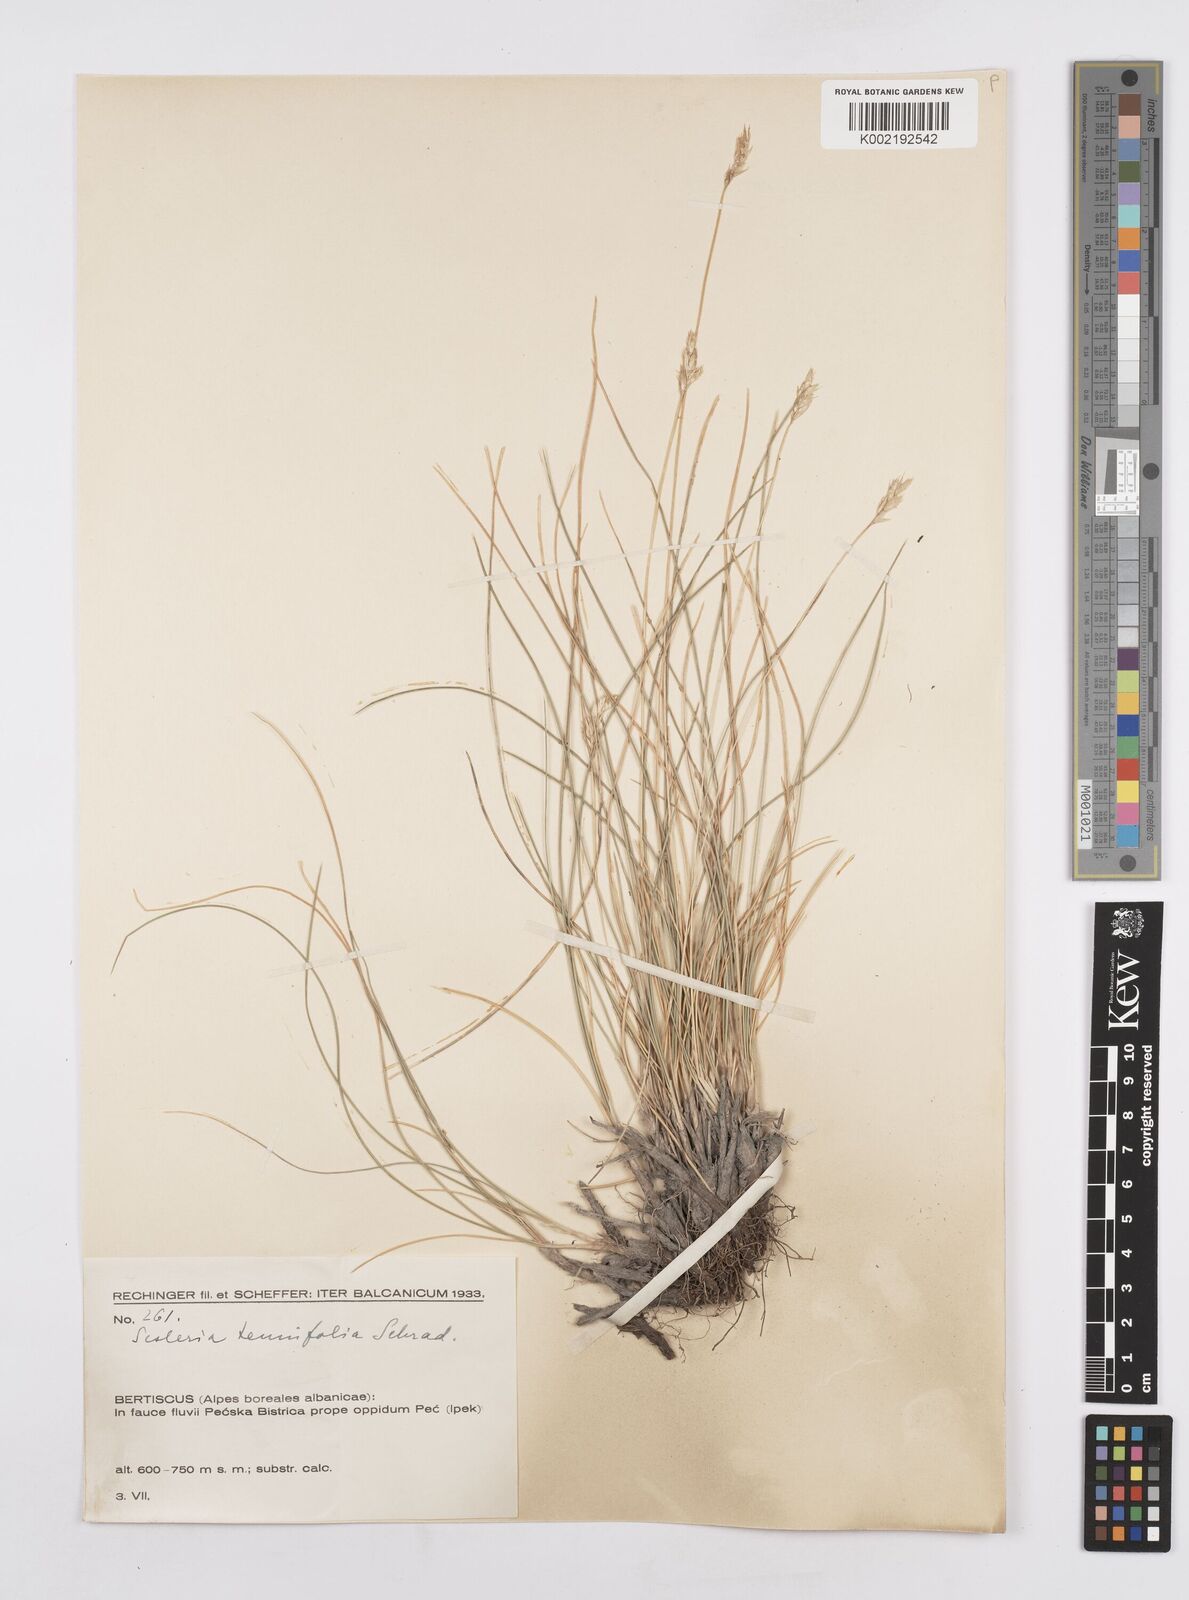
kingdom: Plantae
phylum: Tracheophyta
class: Liliopsida
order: Poales
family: Poaceae
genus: Sesleria
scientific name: Sesleria juncifolia
